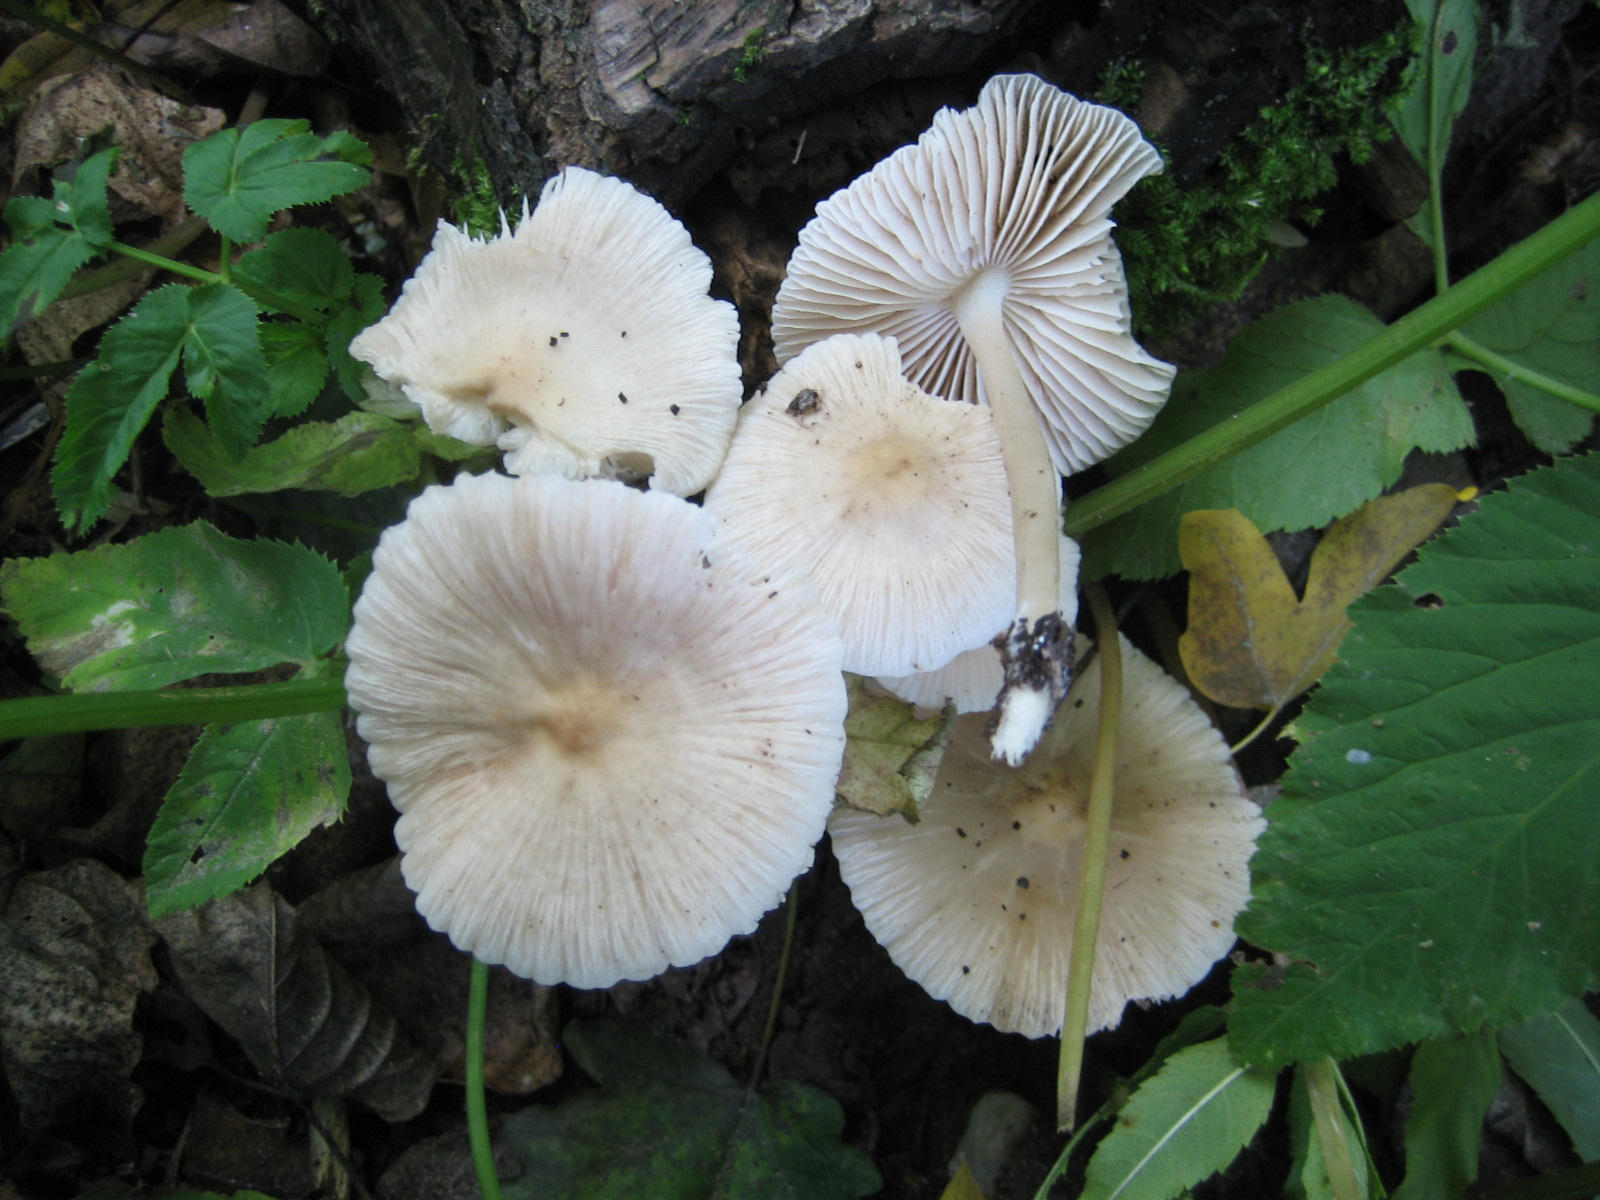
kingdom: Fungi
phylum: Basidiomycota
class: Agaricomycetes
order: Agaricales
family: Mycenaceae
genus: Mycena
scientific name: Mycena galericulata
